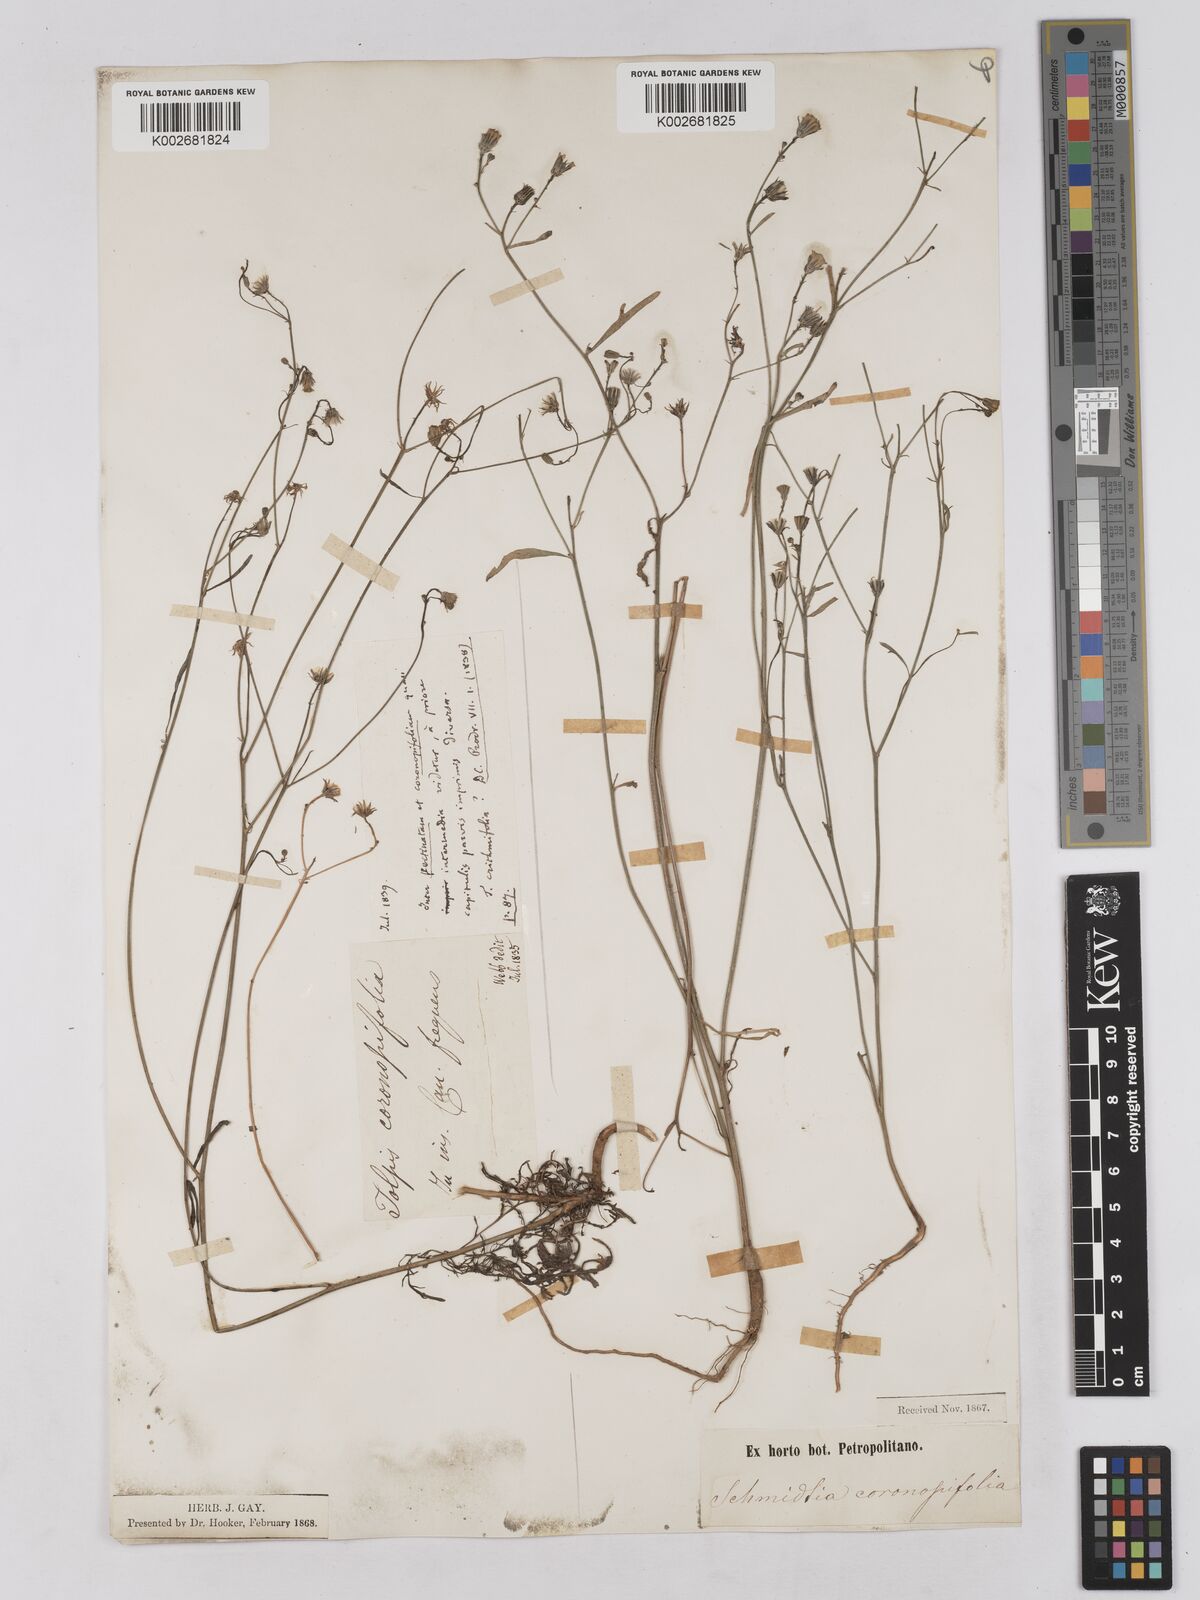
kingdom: Plantae
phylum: Tracheophyta
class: Magnoliopsida
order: Asterales
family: Asteraceae
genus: Tolpis
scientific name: Tolpis coronopifolia
